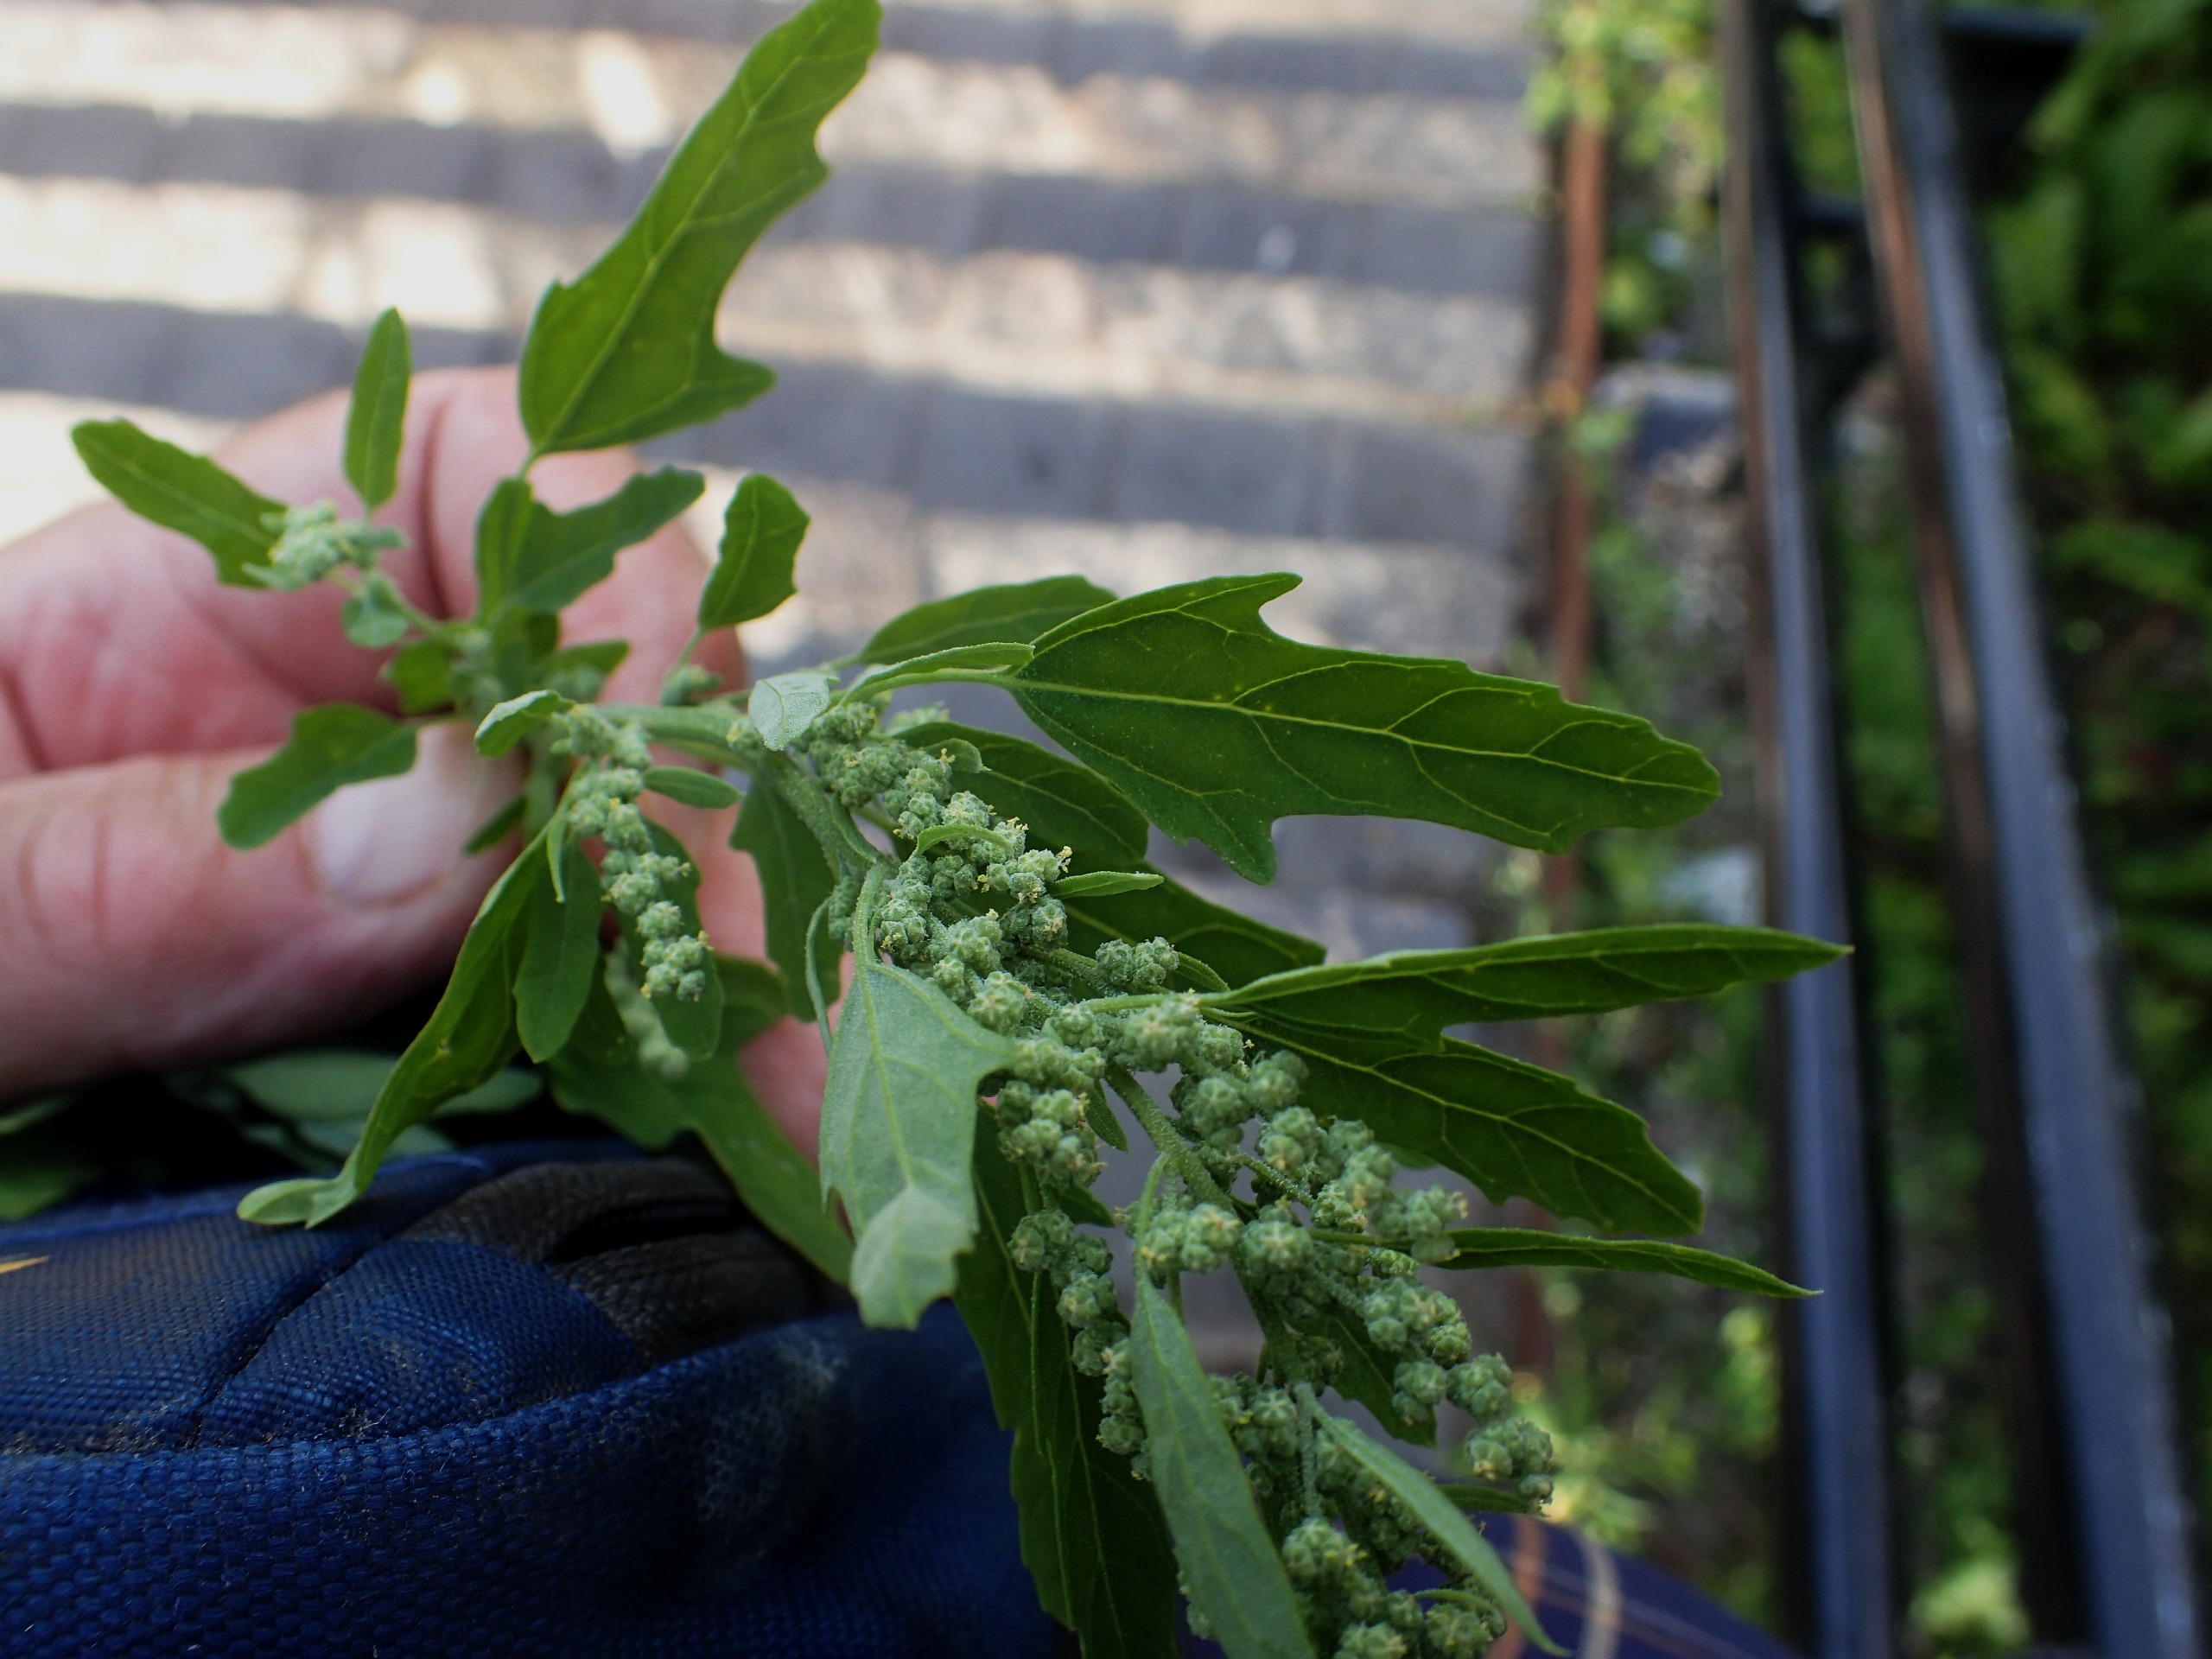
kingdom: Plantae
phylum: Tracheophyta
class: Magnoliopsida
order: Caryophyllales
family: Amaranthaceae
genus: Chenopodium
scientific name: Chenopodium ficifolium
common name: Figenbladet gåsefod
